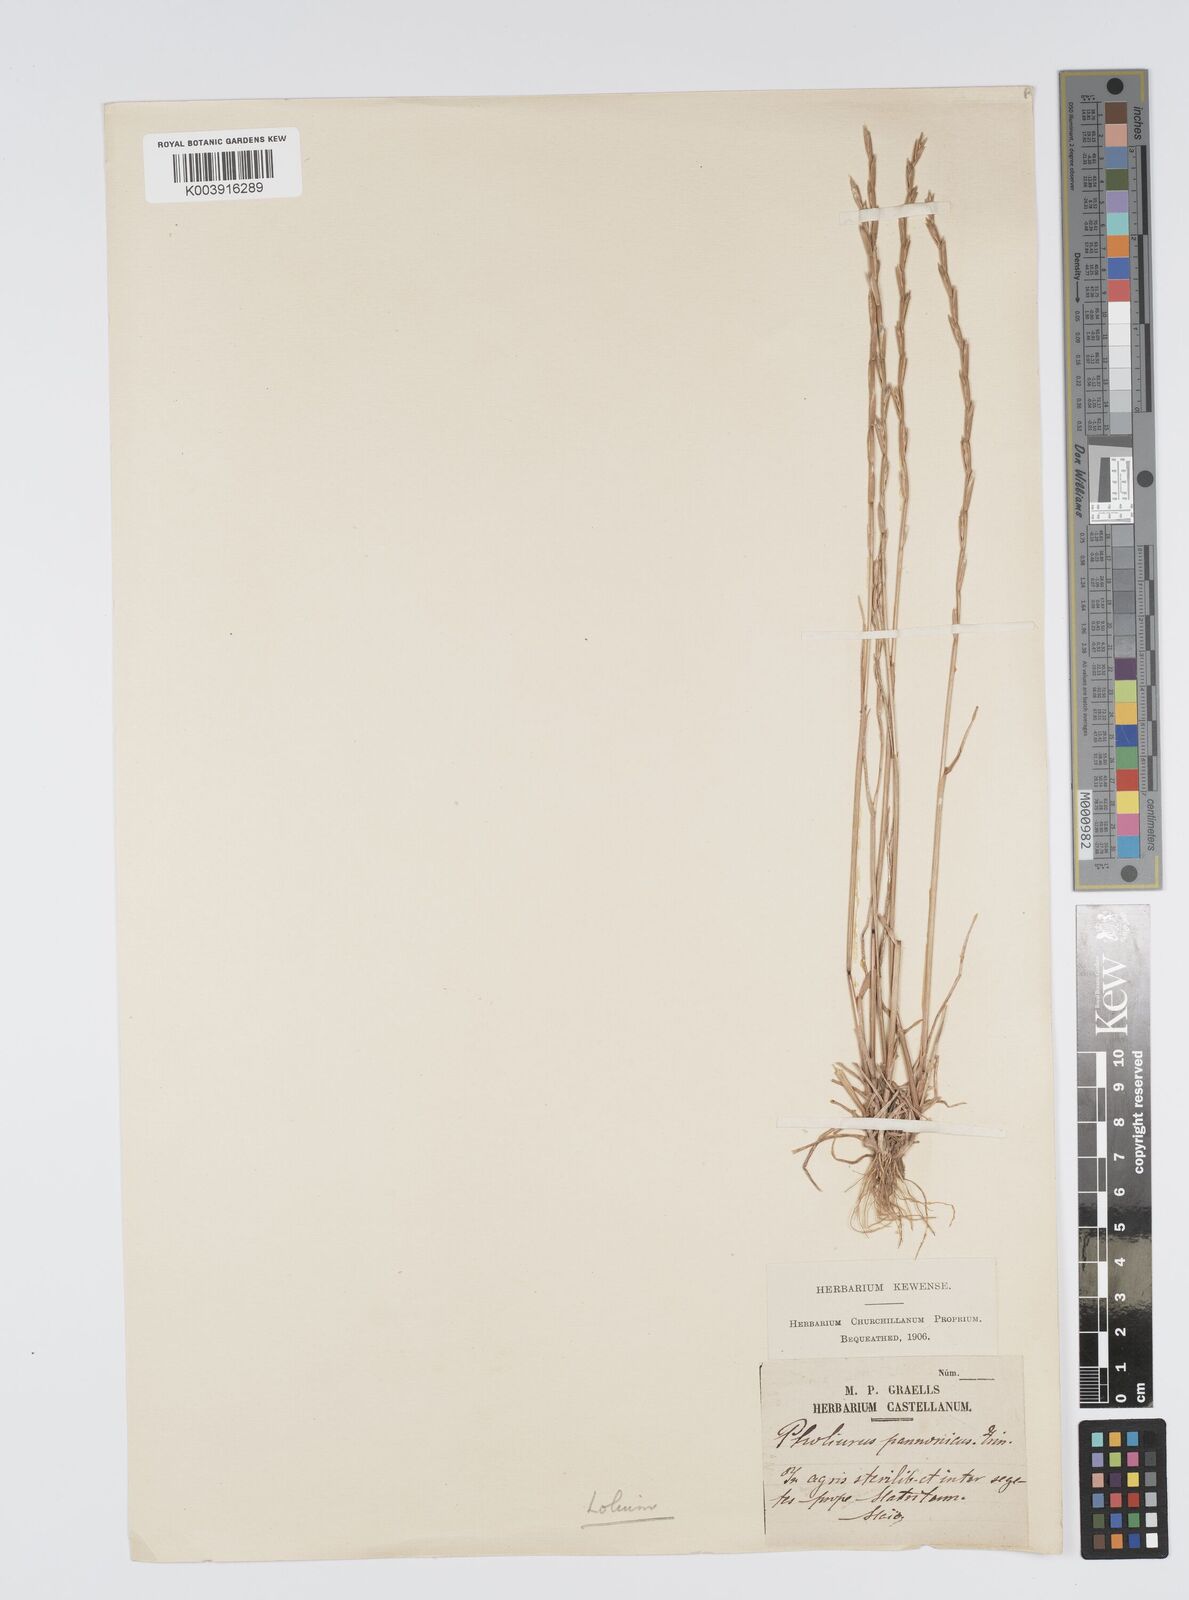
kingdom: Plantae
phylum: Tracheophyta
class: Liliopsida
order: Poales
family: Poaceae
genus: Lolium
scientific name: Lolium rigidum
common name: Wimmera ryegrass
